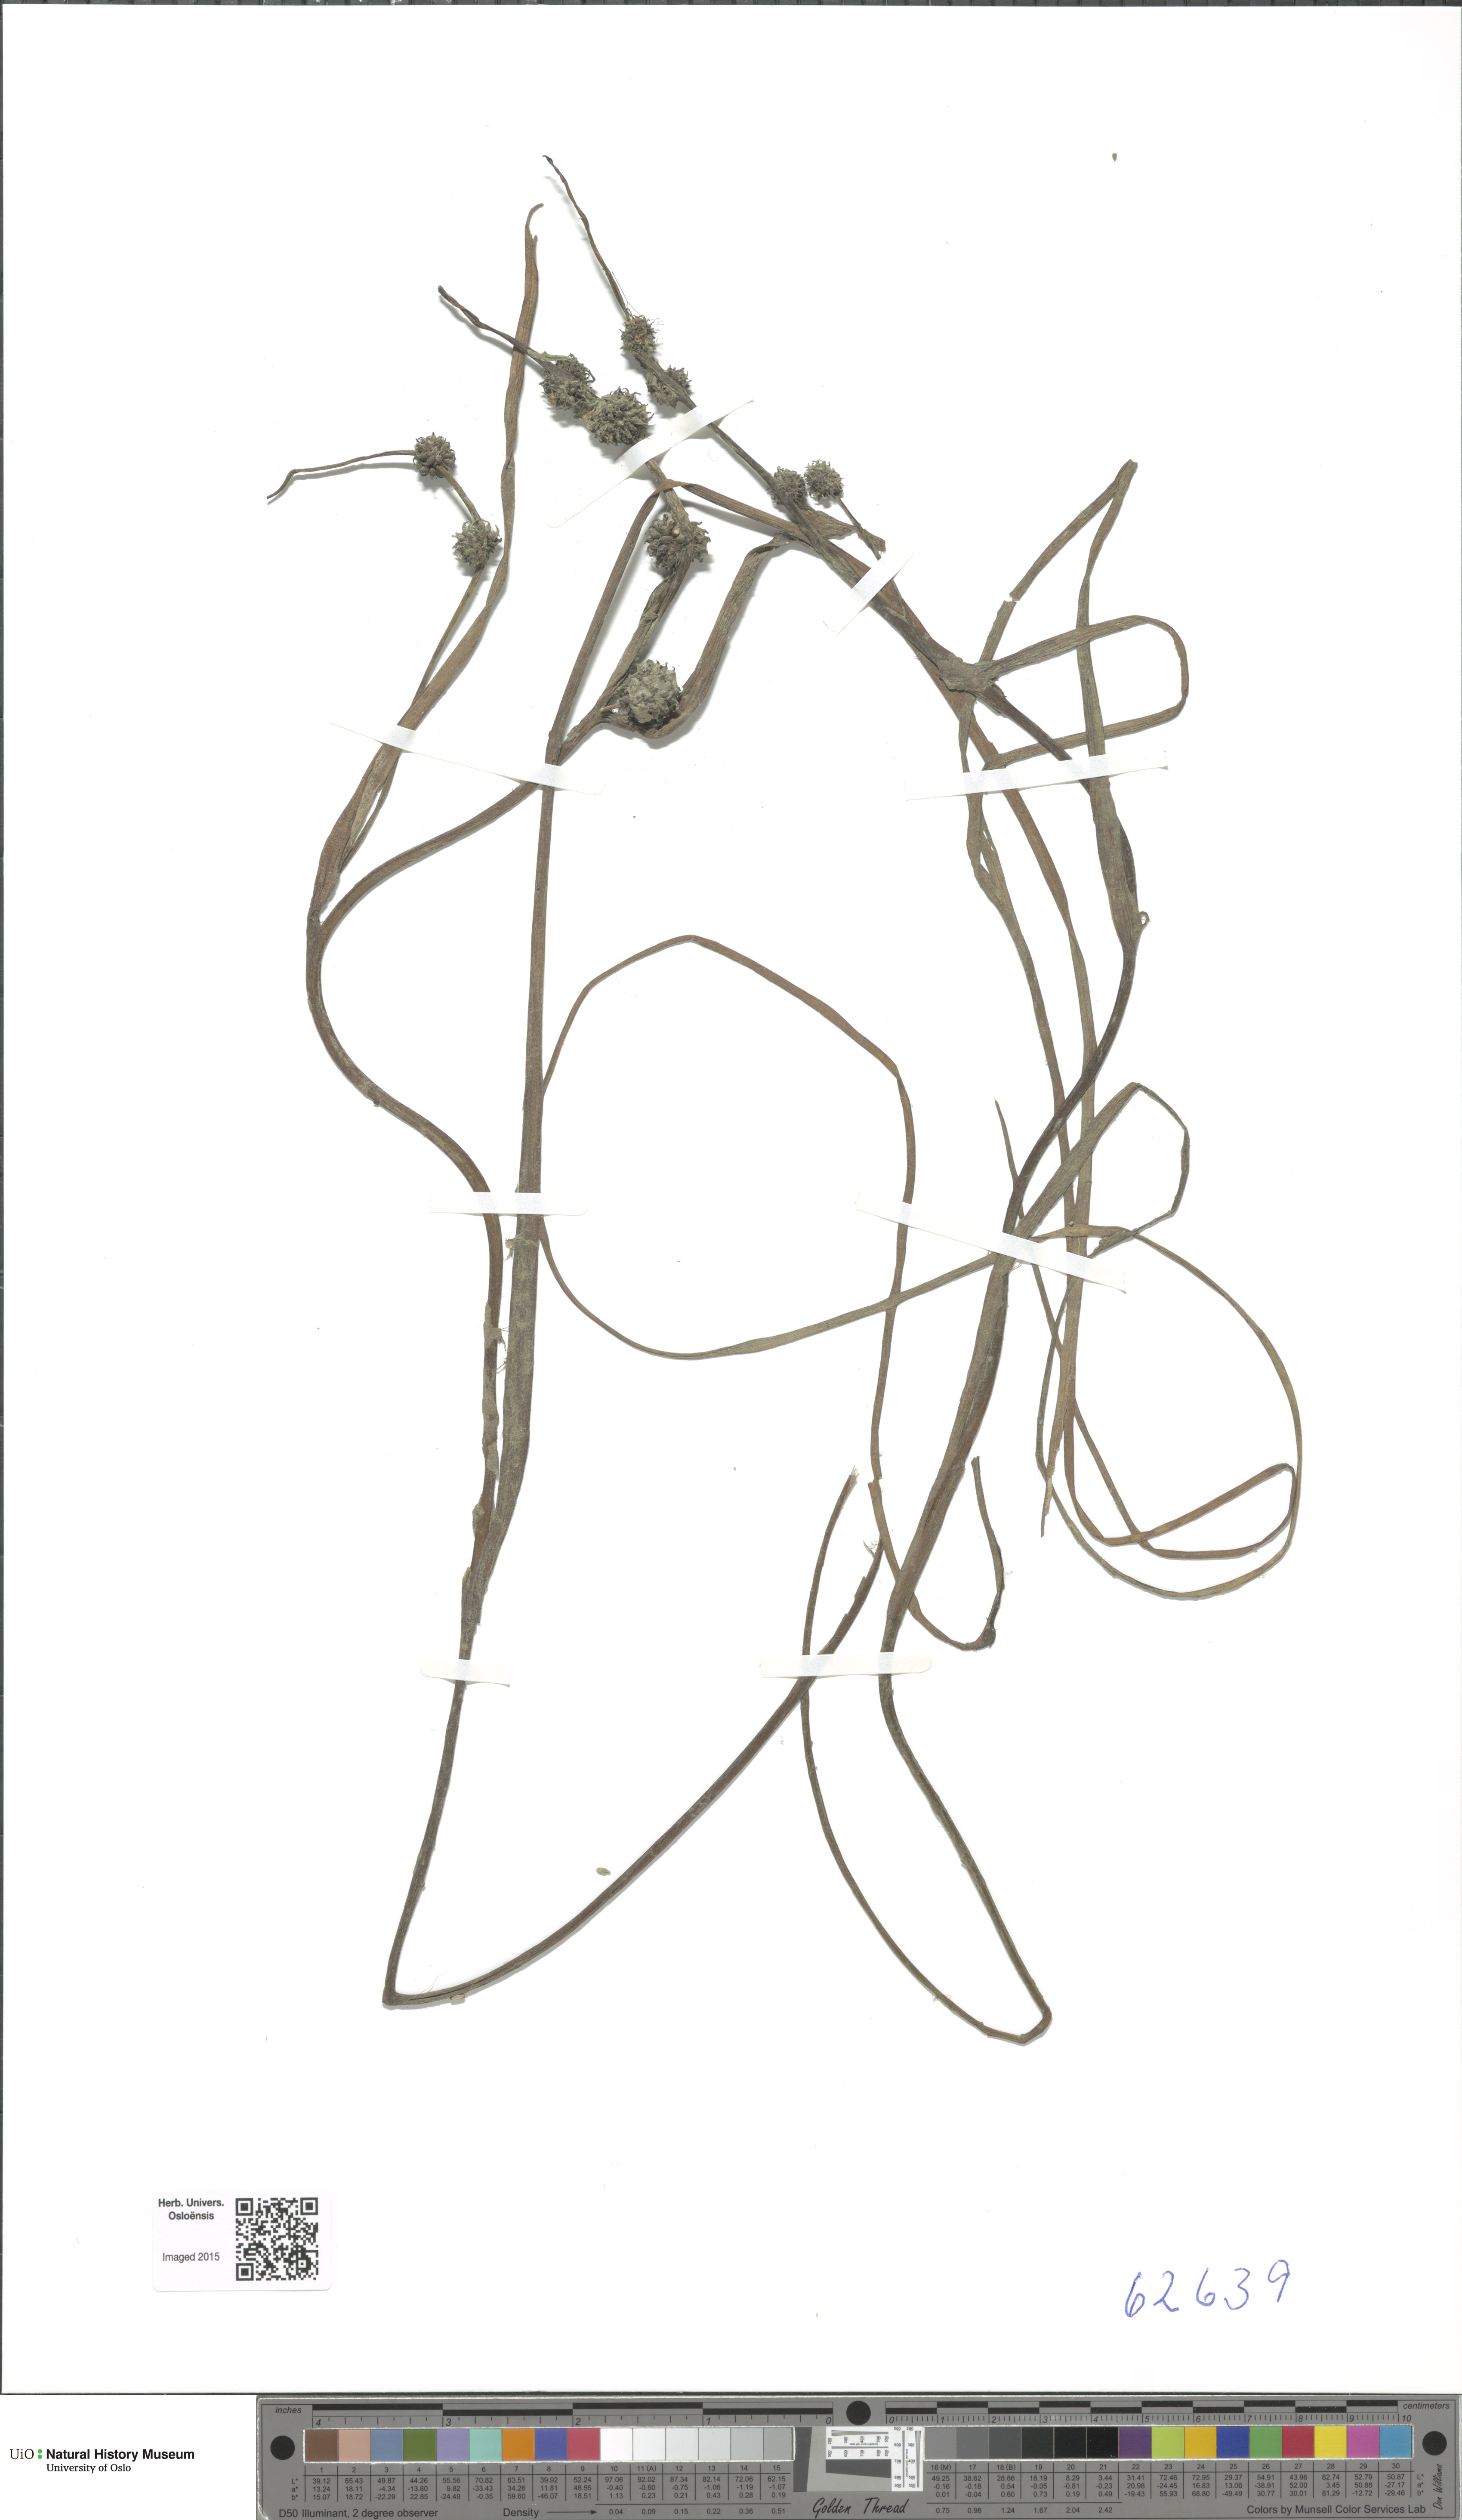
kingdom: Plantae
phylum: Tracheophyta
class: Liliopsida
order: Poales
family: Typhaceae
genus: Sparganium
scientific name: Sparganium gramineum
